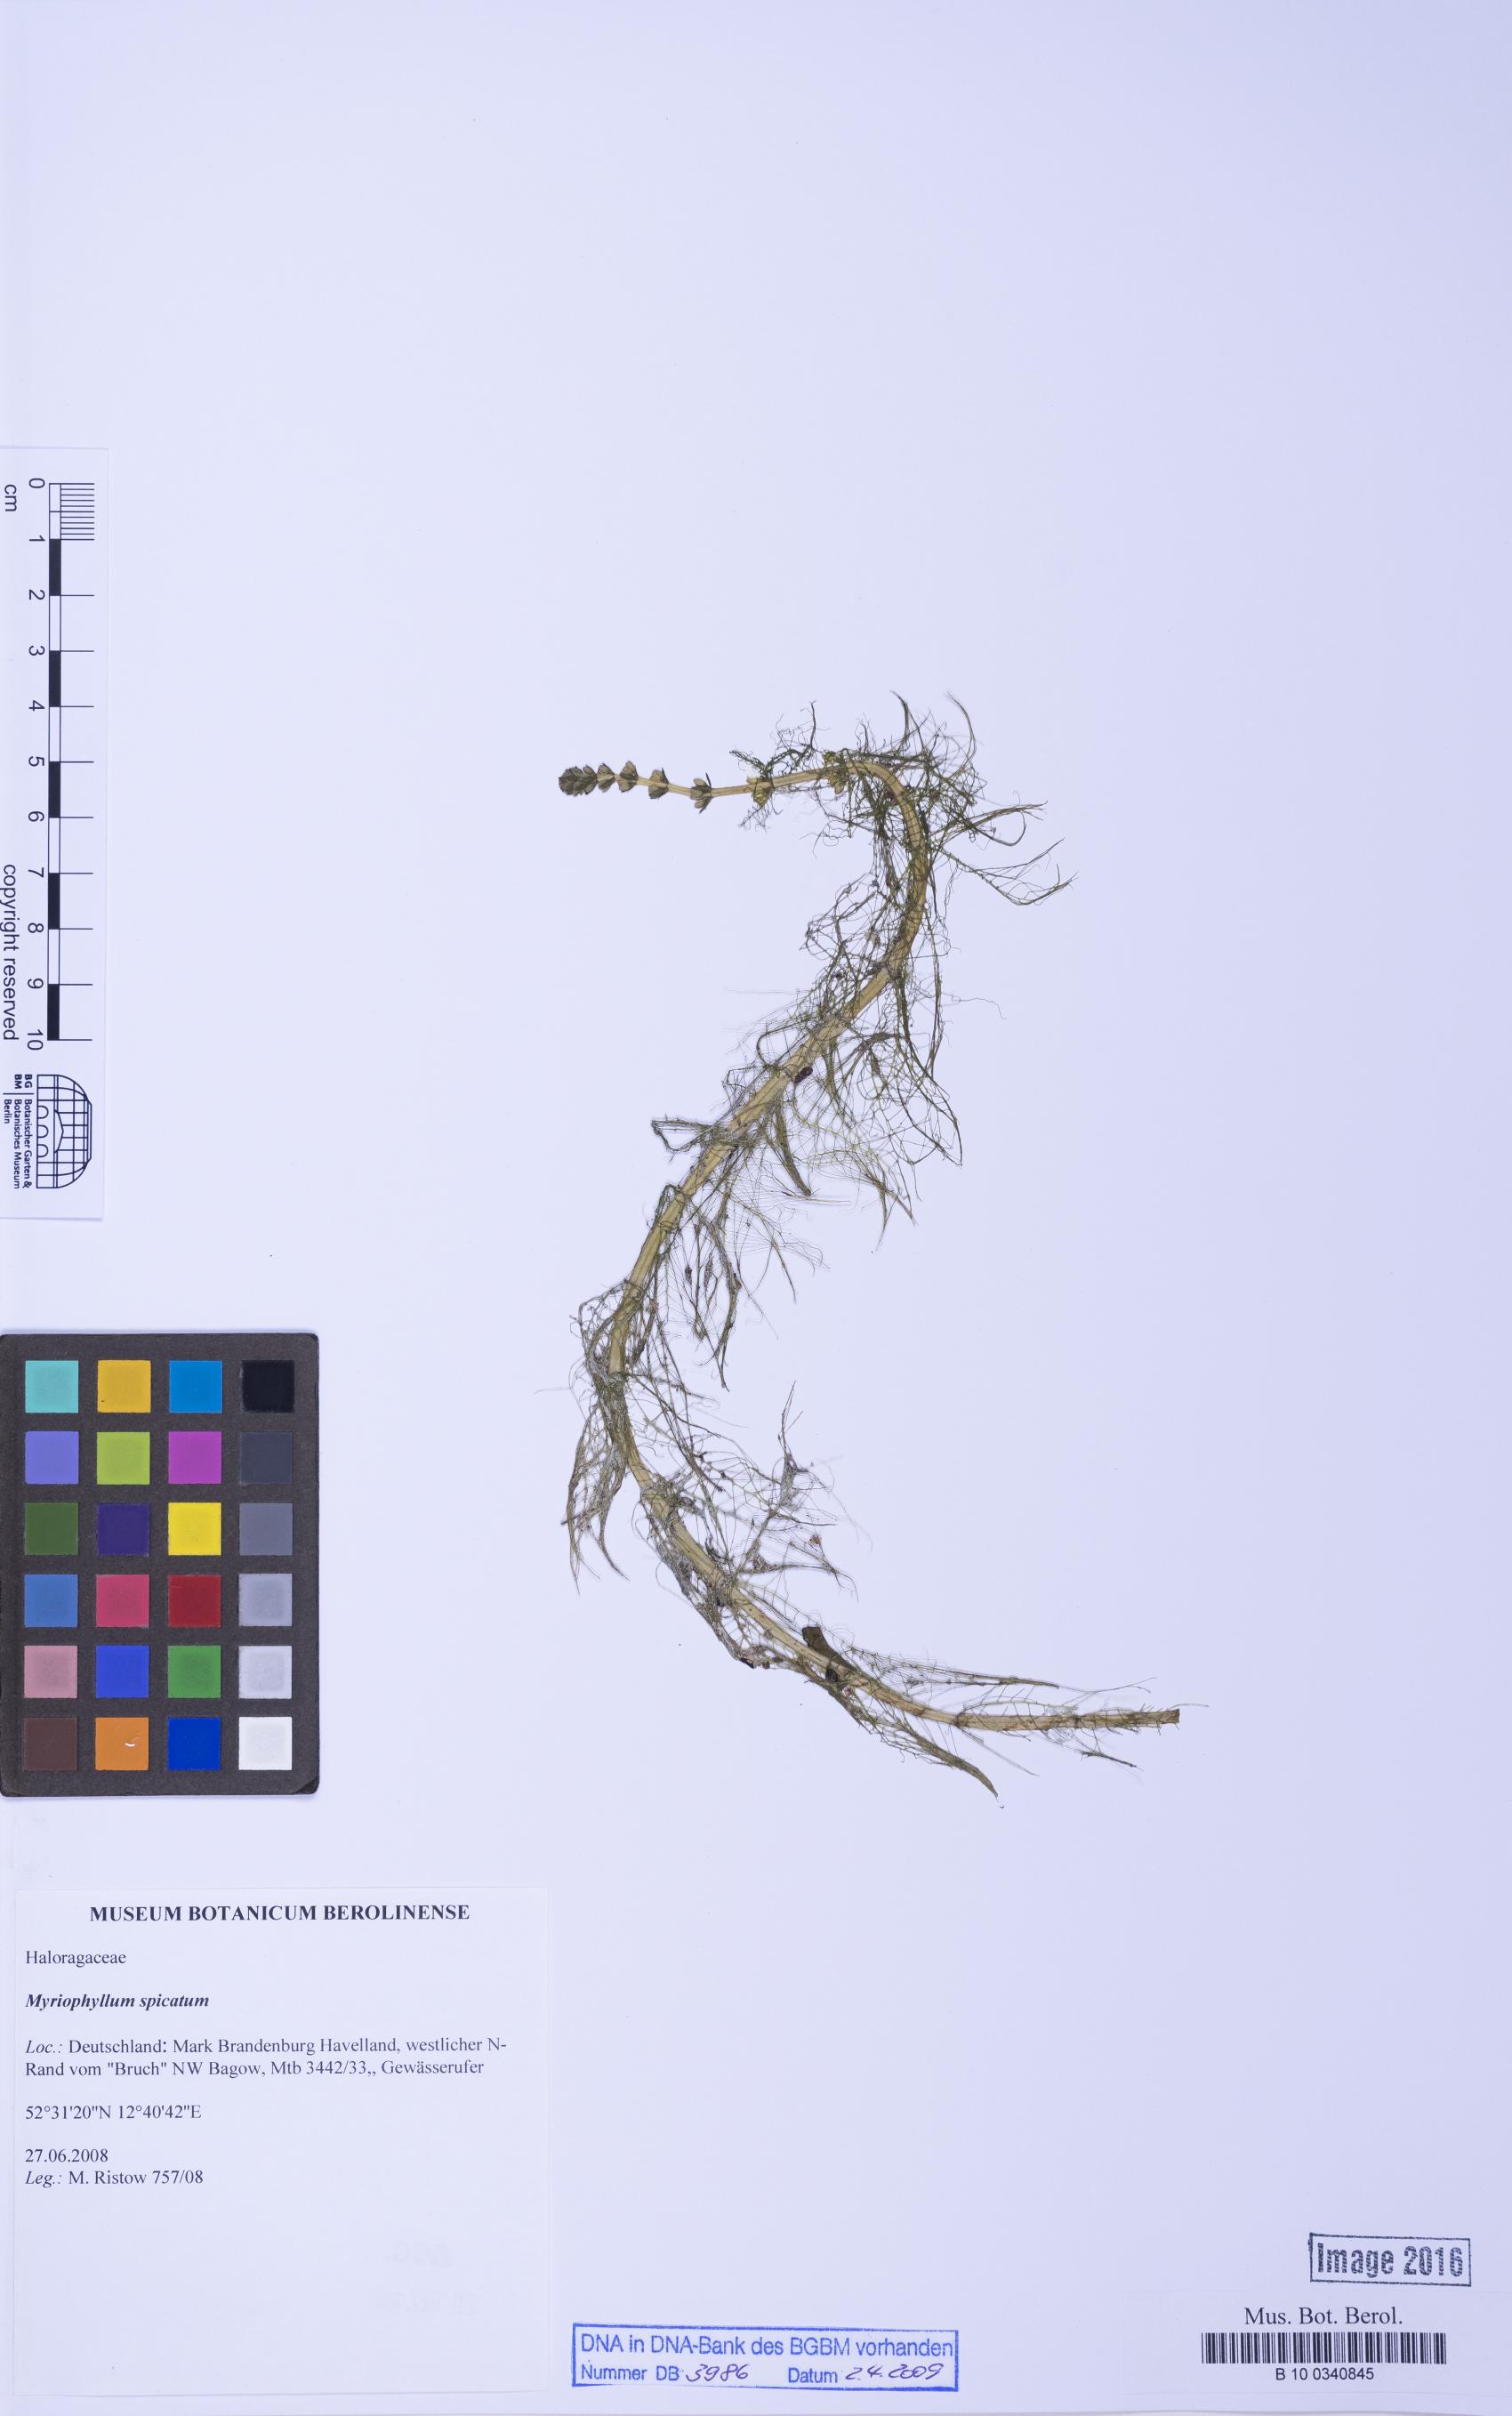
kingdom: Plantae
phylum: Tracheophyta
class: Magnoliopsida
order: Saxifragales
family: Haloragaceae
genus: Myriophyllum
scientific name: Myriophyllum spicatum
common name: Spiked water-milfoil
